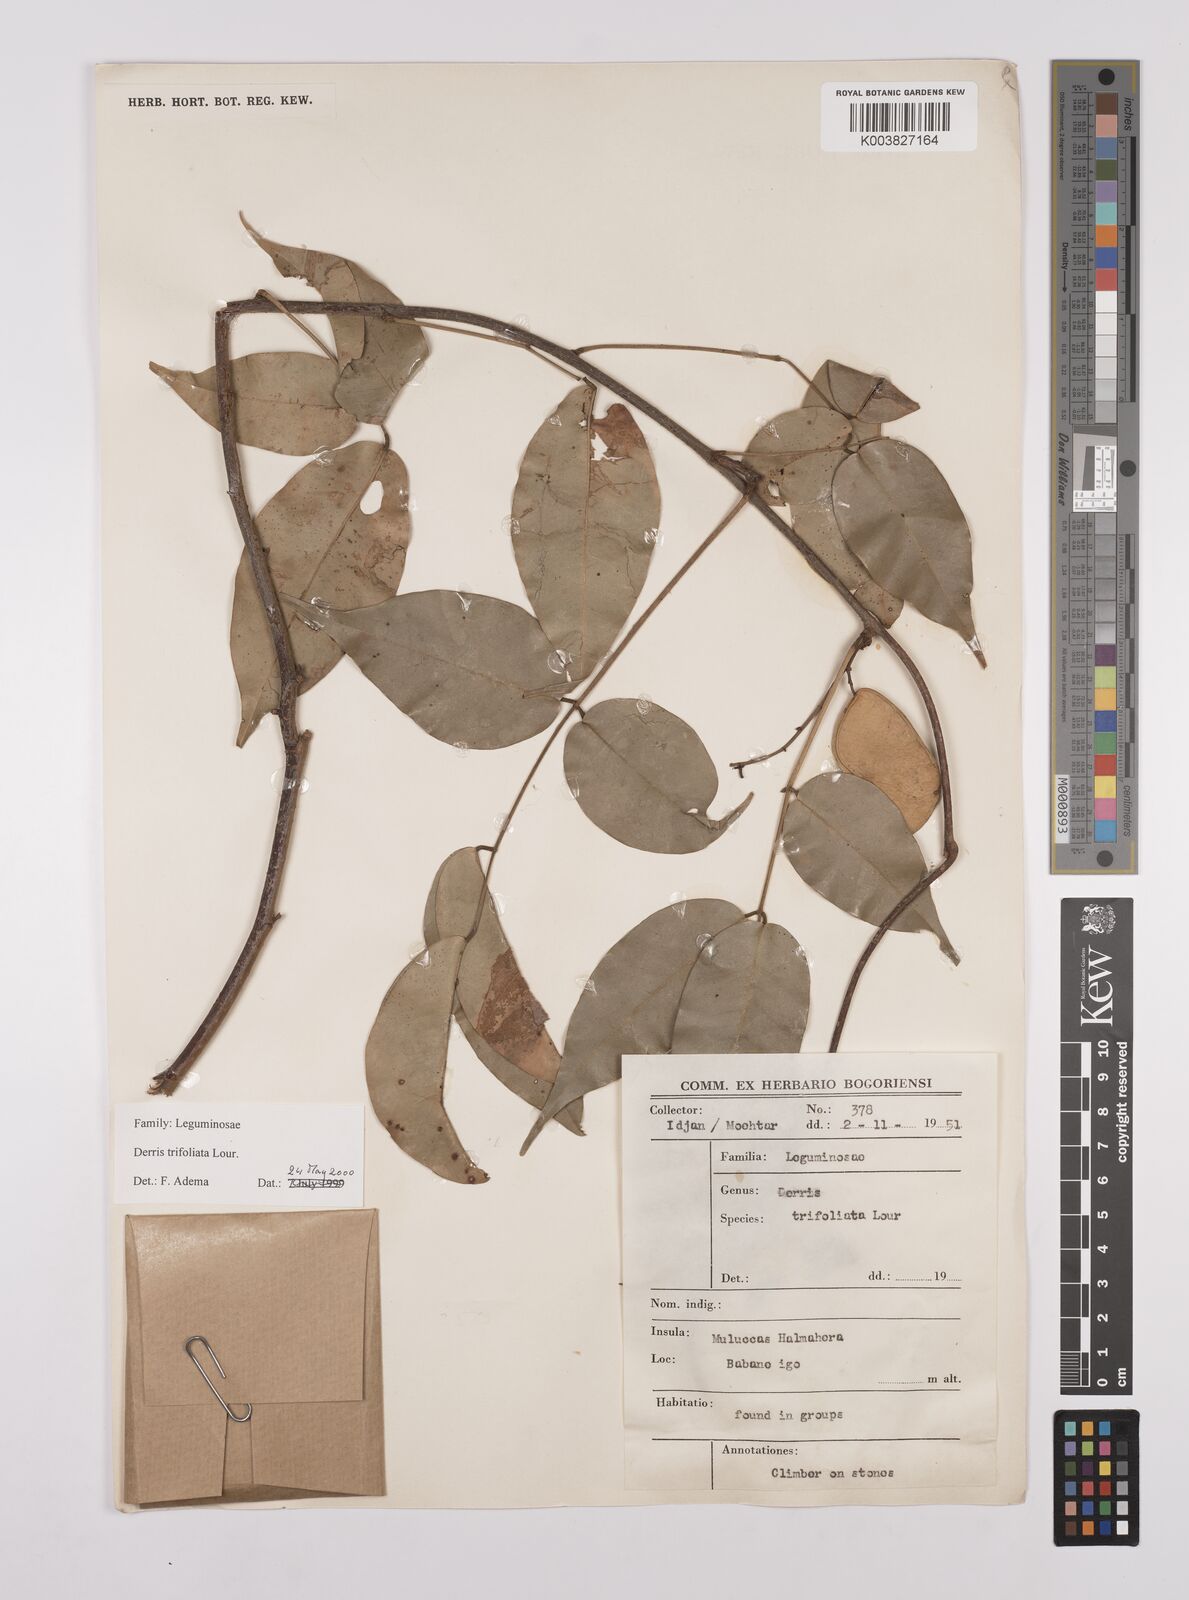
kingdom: Plantae
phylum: Tracheophyta
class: Magnoliopsida
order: Fabales
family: Fabaceae
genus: Derris
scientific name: Derris trifoliata
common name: Three-leaf derris
